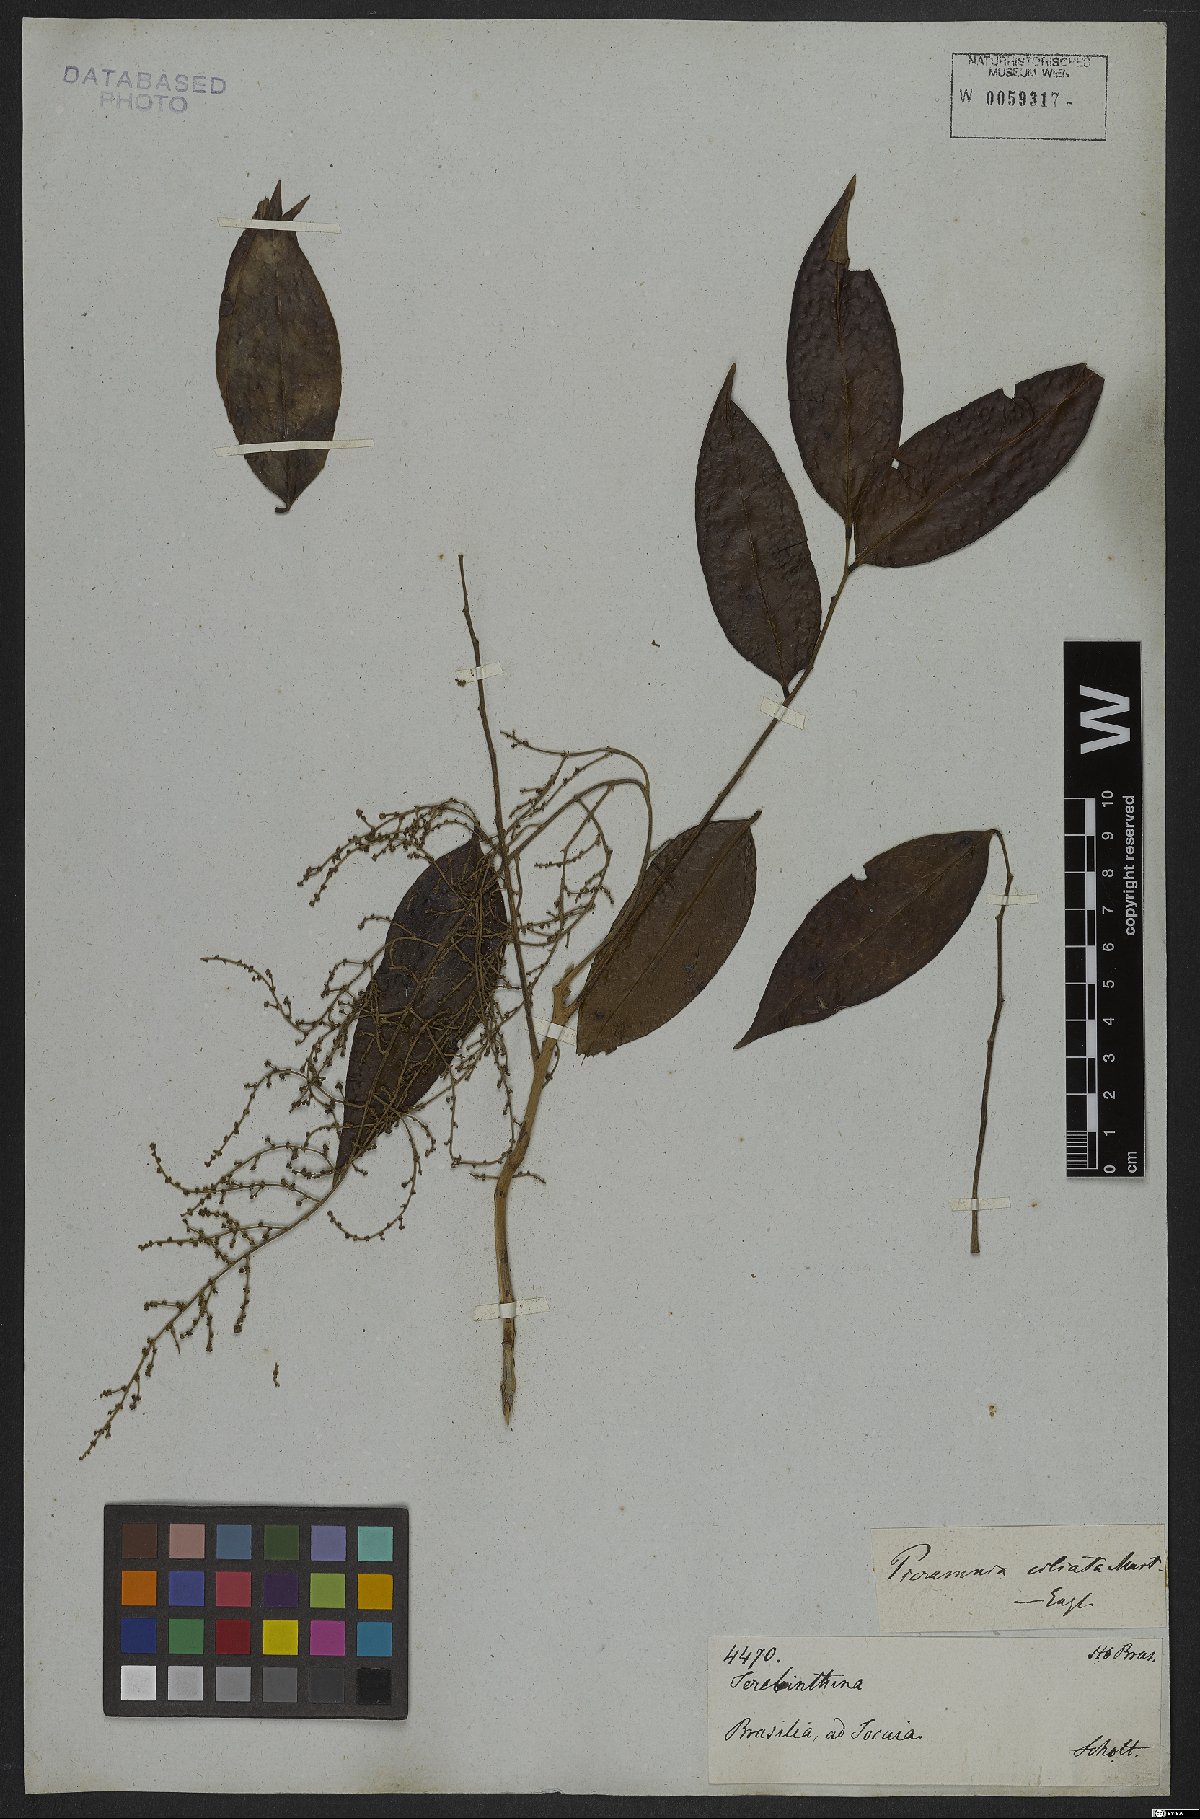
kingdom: Plantae
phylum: Tracheophyta
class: Magnoliopsida
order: Picramniales
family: Picramniaceae
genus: Picramnia
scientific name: Picramnia ciliata
